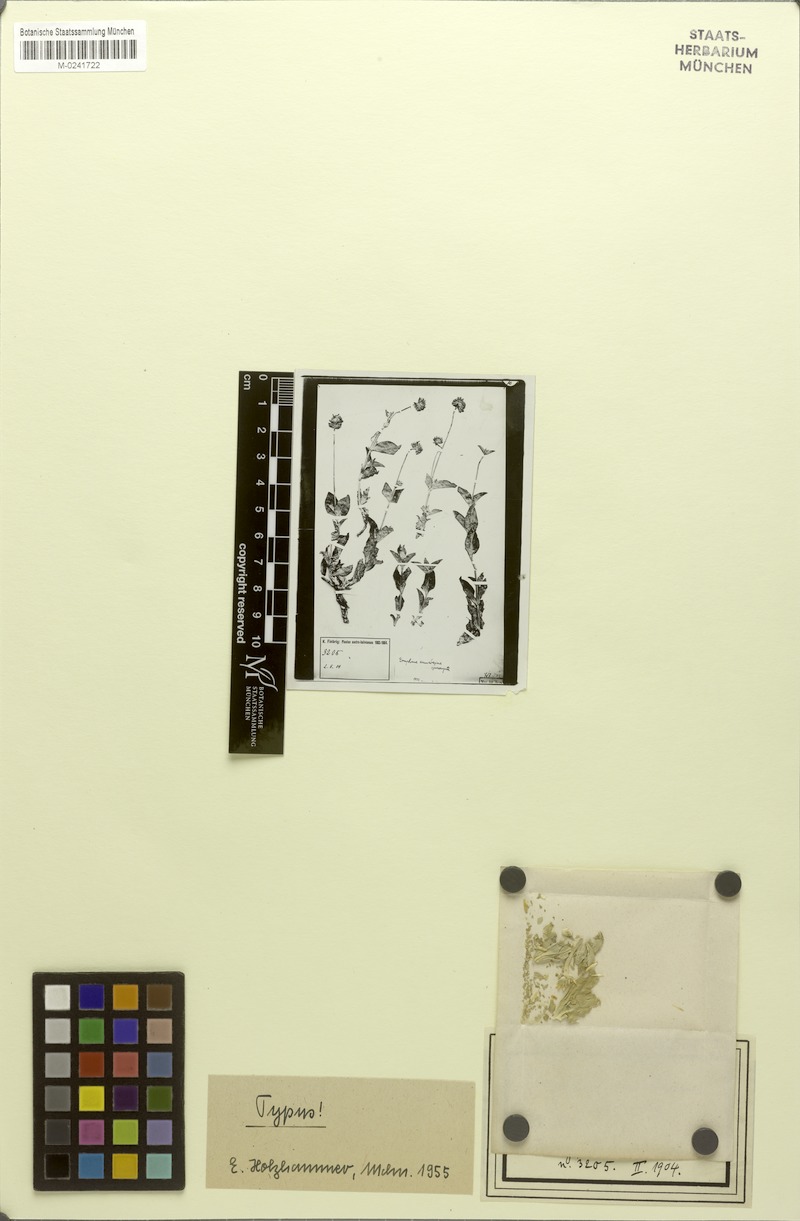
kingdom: Plantae
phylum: Tracheophyta
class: Magnoliopsida
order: Caryophyllales
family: Amaranthaceae
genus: Gomphrena
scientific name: Gomphrena perennis
